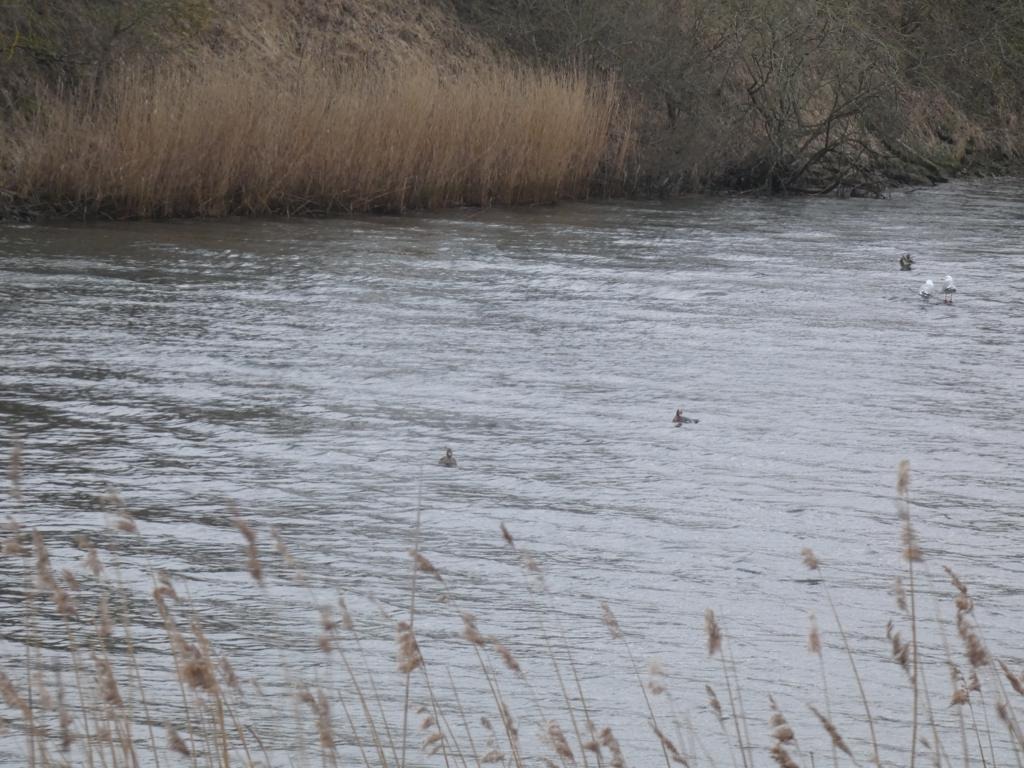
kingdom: Animalia
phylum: Chordata
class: Aves
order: Anseriformes
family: Anatidae
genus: Mareca
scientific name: Mareca penelope
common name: Pibeand
